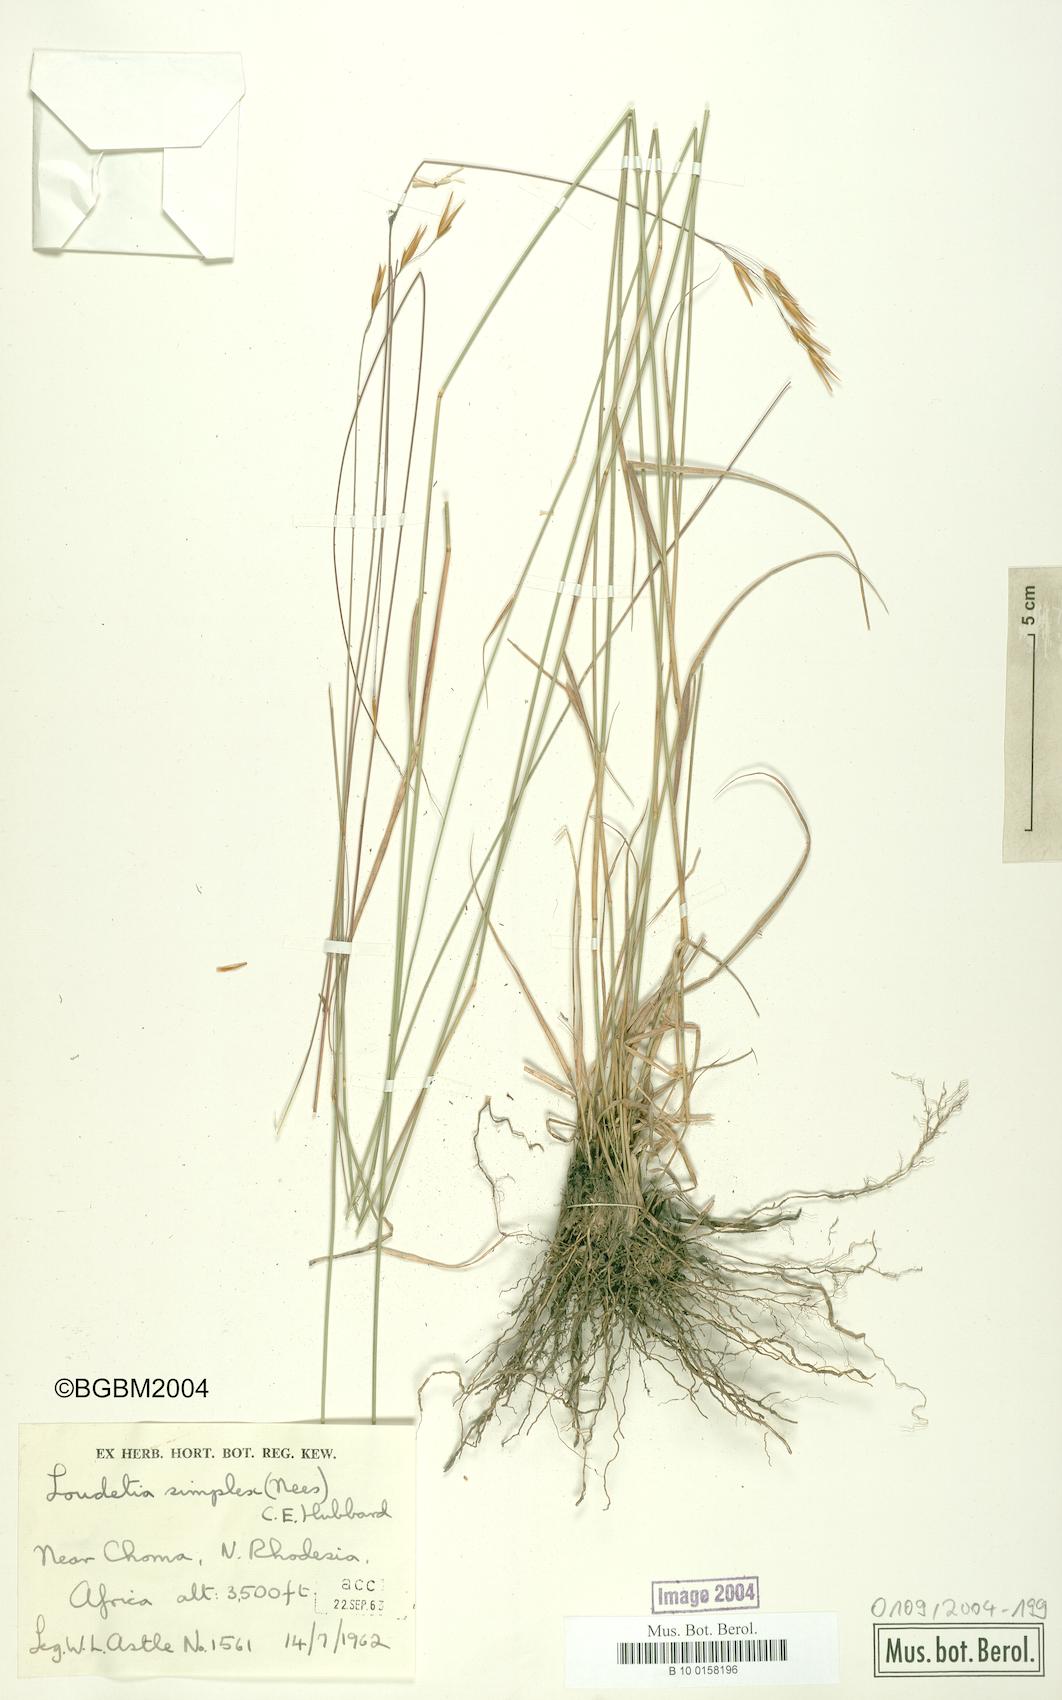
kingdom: Plantae
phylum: Tracheophyta
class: Liliopsida
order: Poales
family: Poaceae
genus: Loudetia
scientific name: Loudetia simplex
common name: Common russet grass
